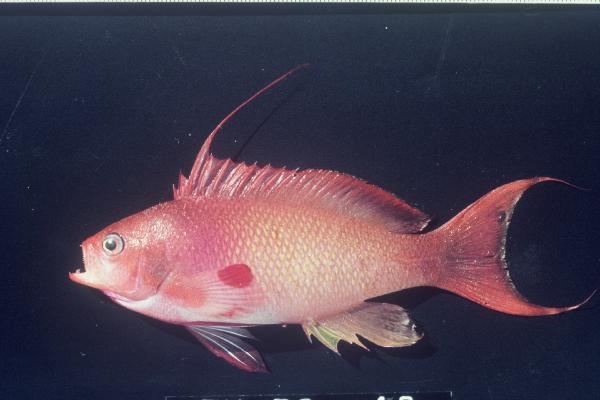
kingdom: Animalia
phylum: Chordata
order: Perciformes
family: Serranidae
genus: Pseudanthias
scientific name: Pseudanthias squamipinnis
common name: Scalefin anthias
